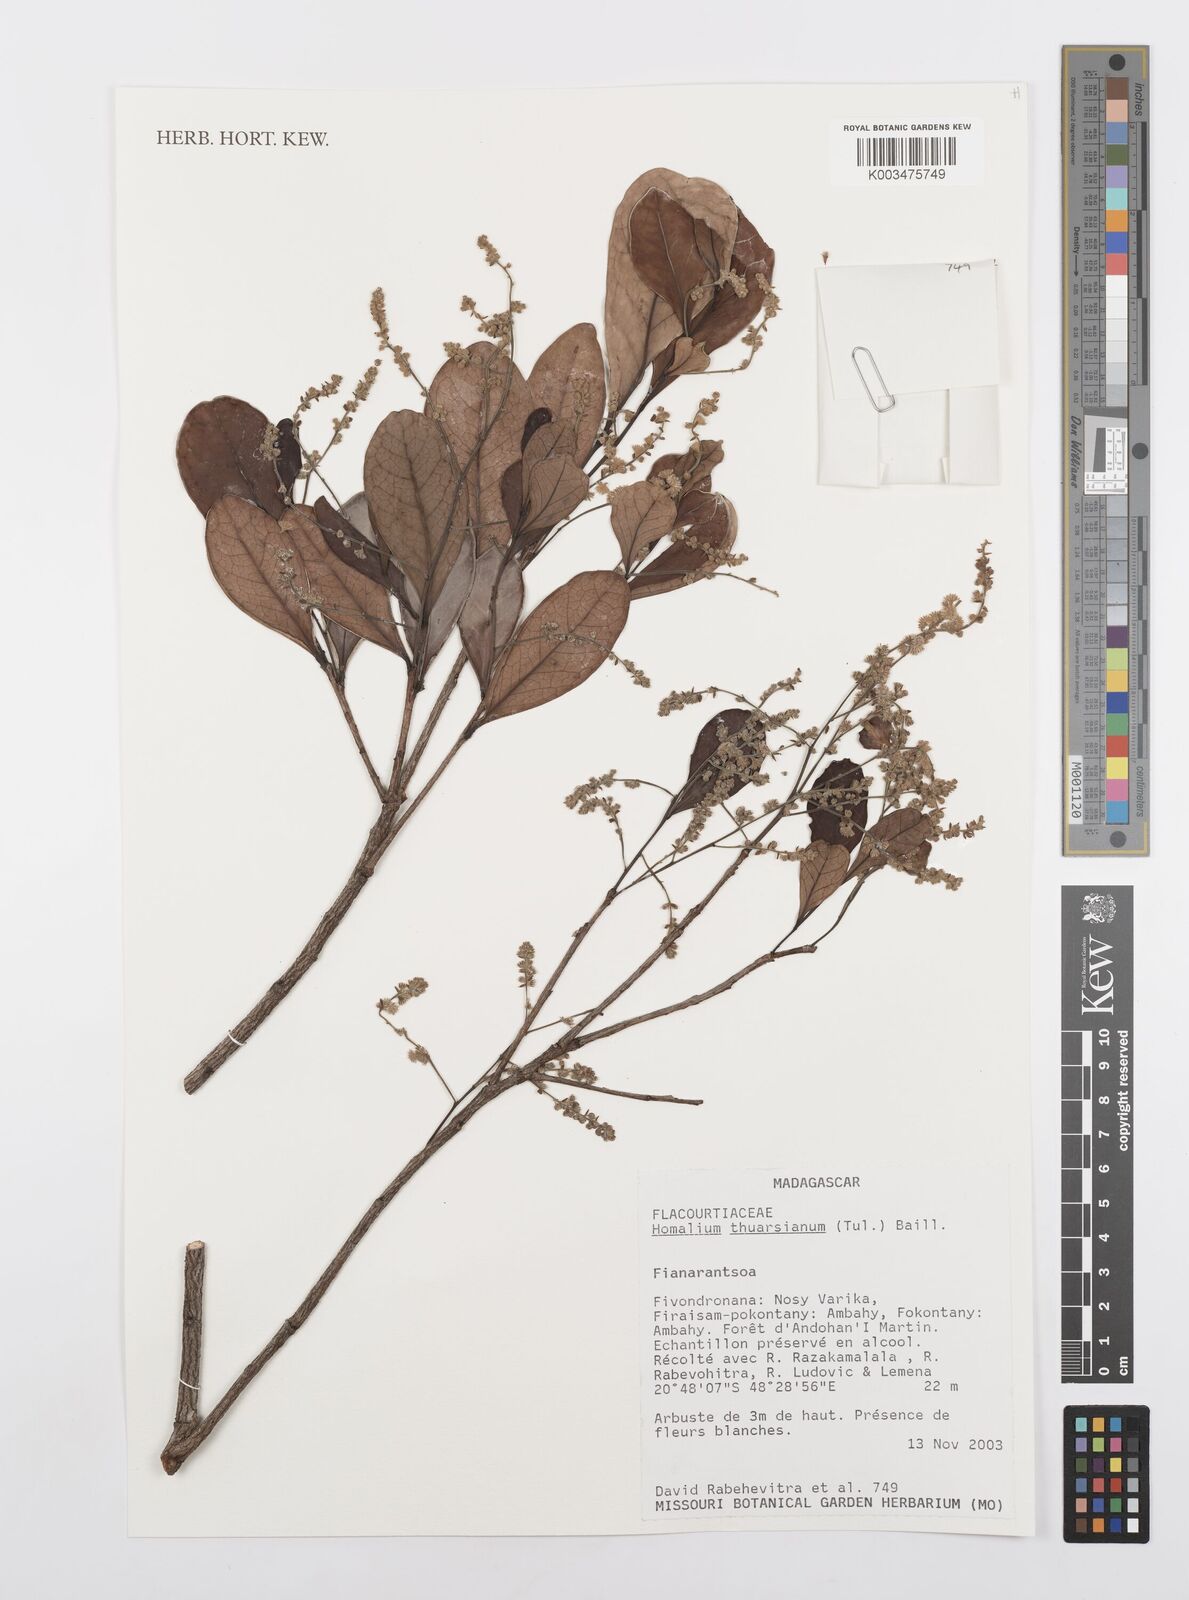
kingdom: Plantae
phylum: Tracheophyta
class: Magnoliopsida
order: Malpighiales
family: Salicaceae
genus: Homalium
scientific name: Homalium thuarsianum
